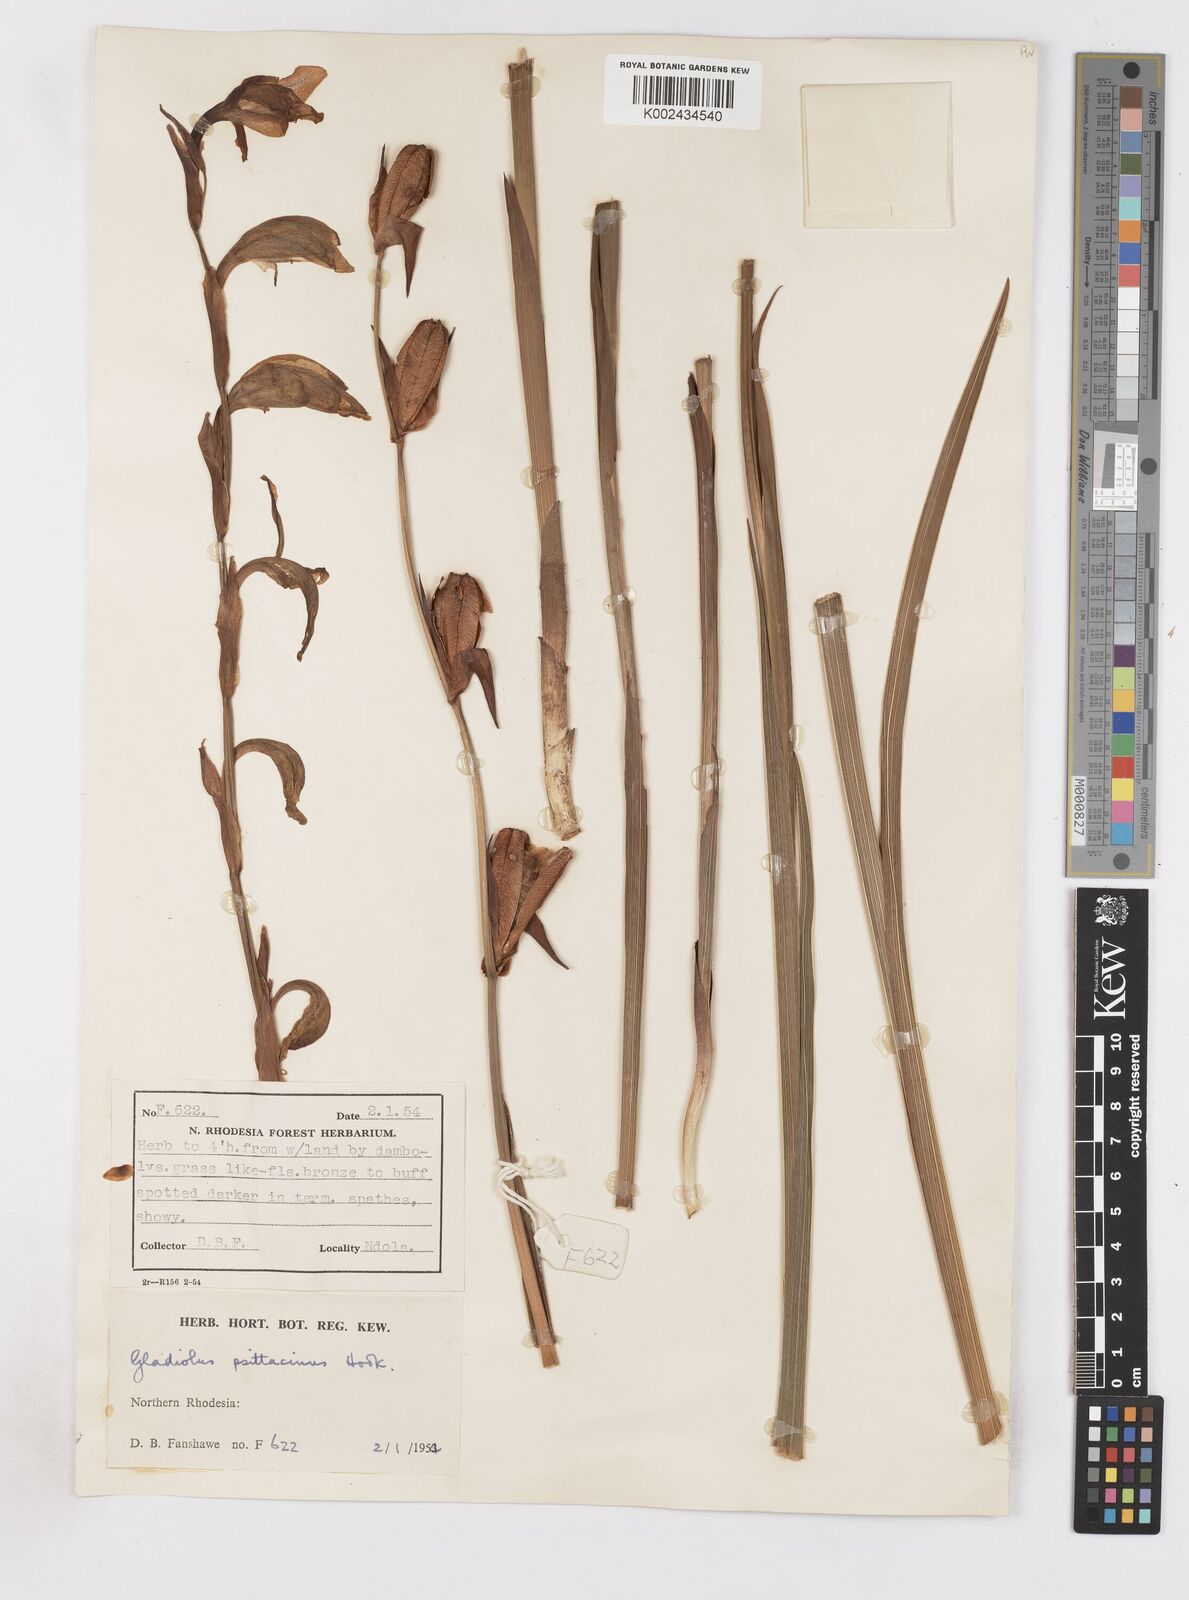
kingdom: Plantae
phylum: Tracheophyta
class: Liliopsida
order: Asparagales
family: Iridaceae
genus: Gladiolus
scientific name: Gladiolus dalenii
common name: Cornflag
